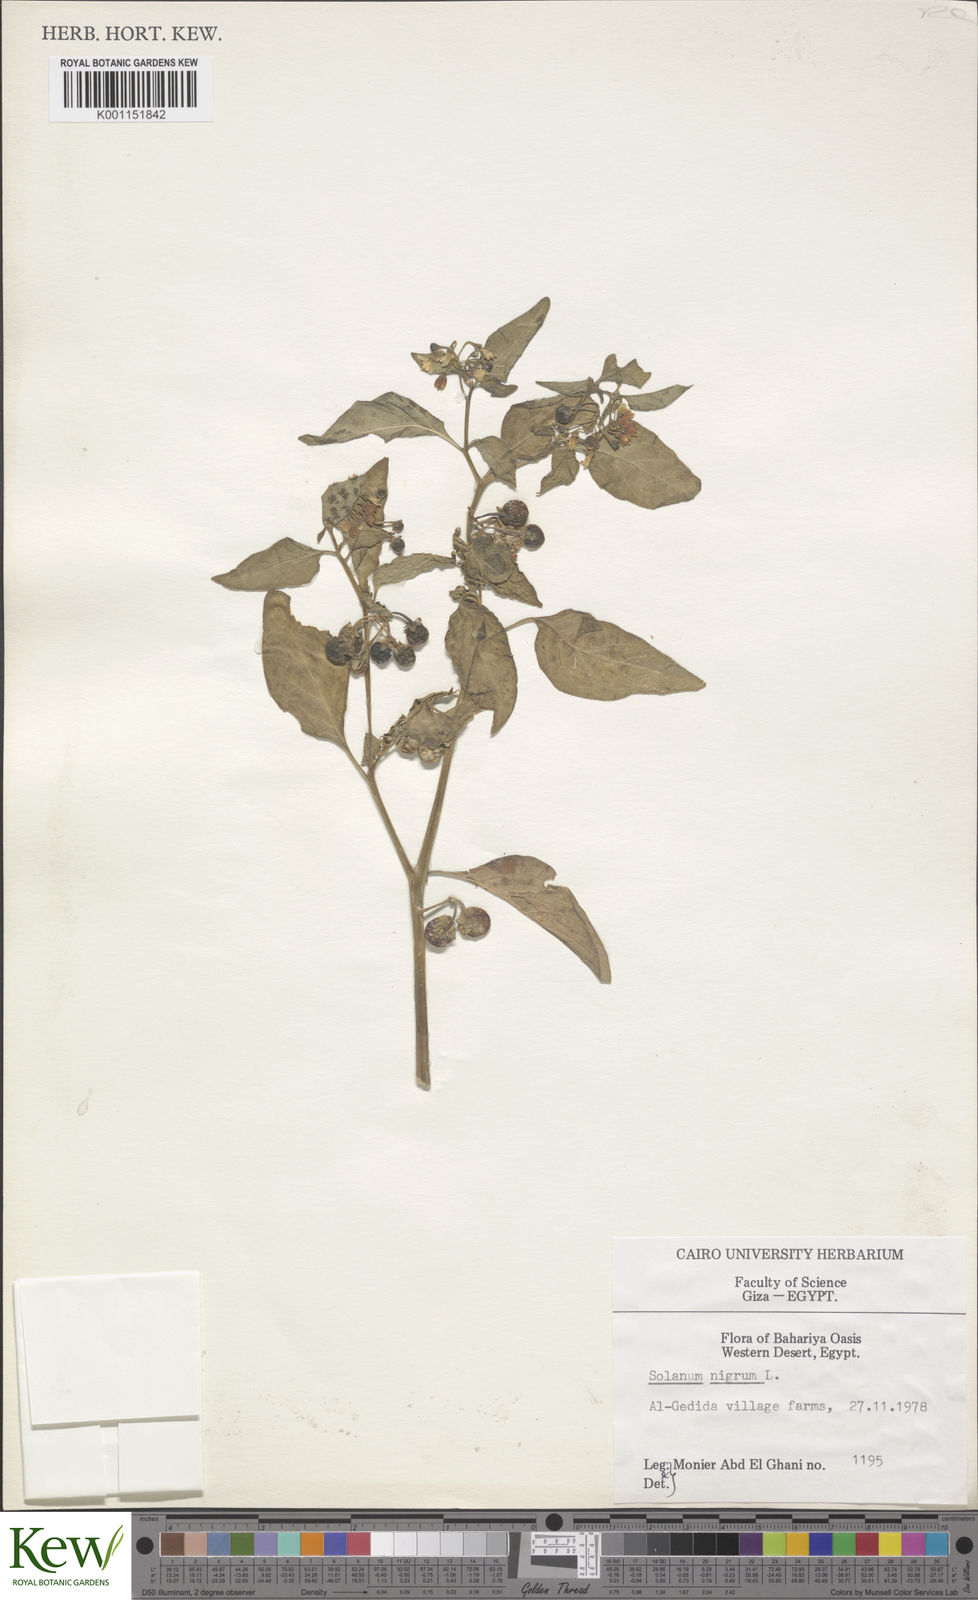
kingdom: Plantae
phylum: Tracheophyta
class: Magnoliopsida
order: Solanales
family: Solanaceae
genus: Solanum
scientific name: Solanum nigrum
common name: Black nightshade
